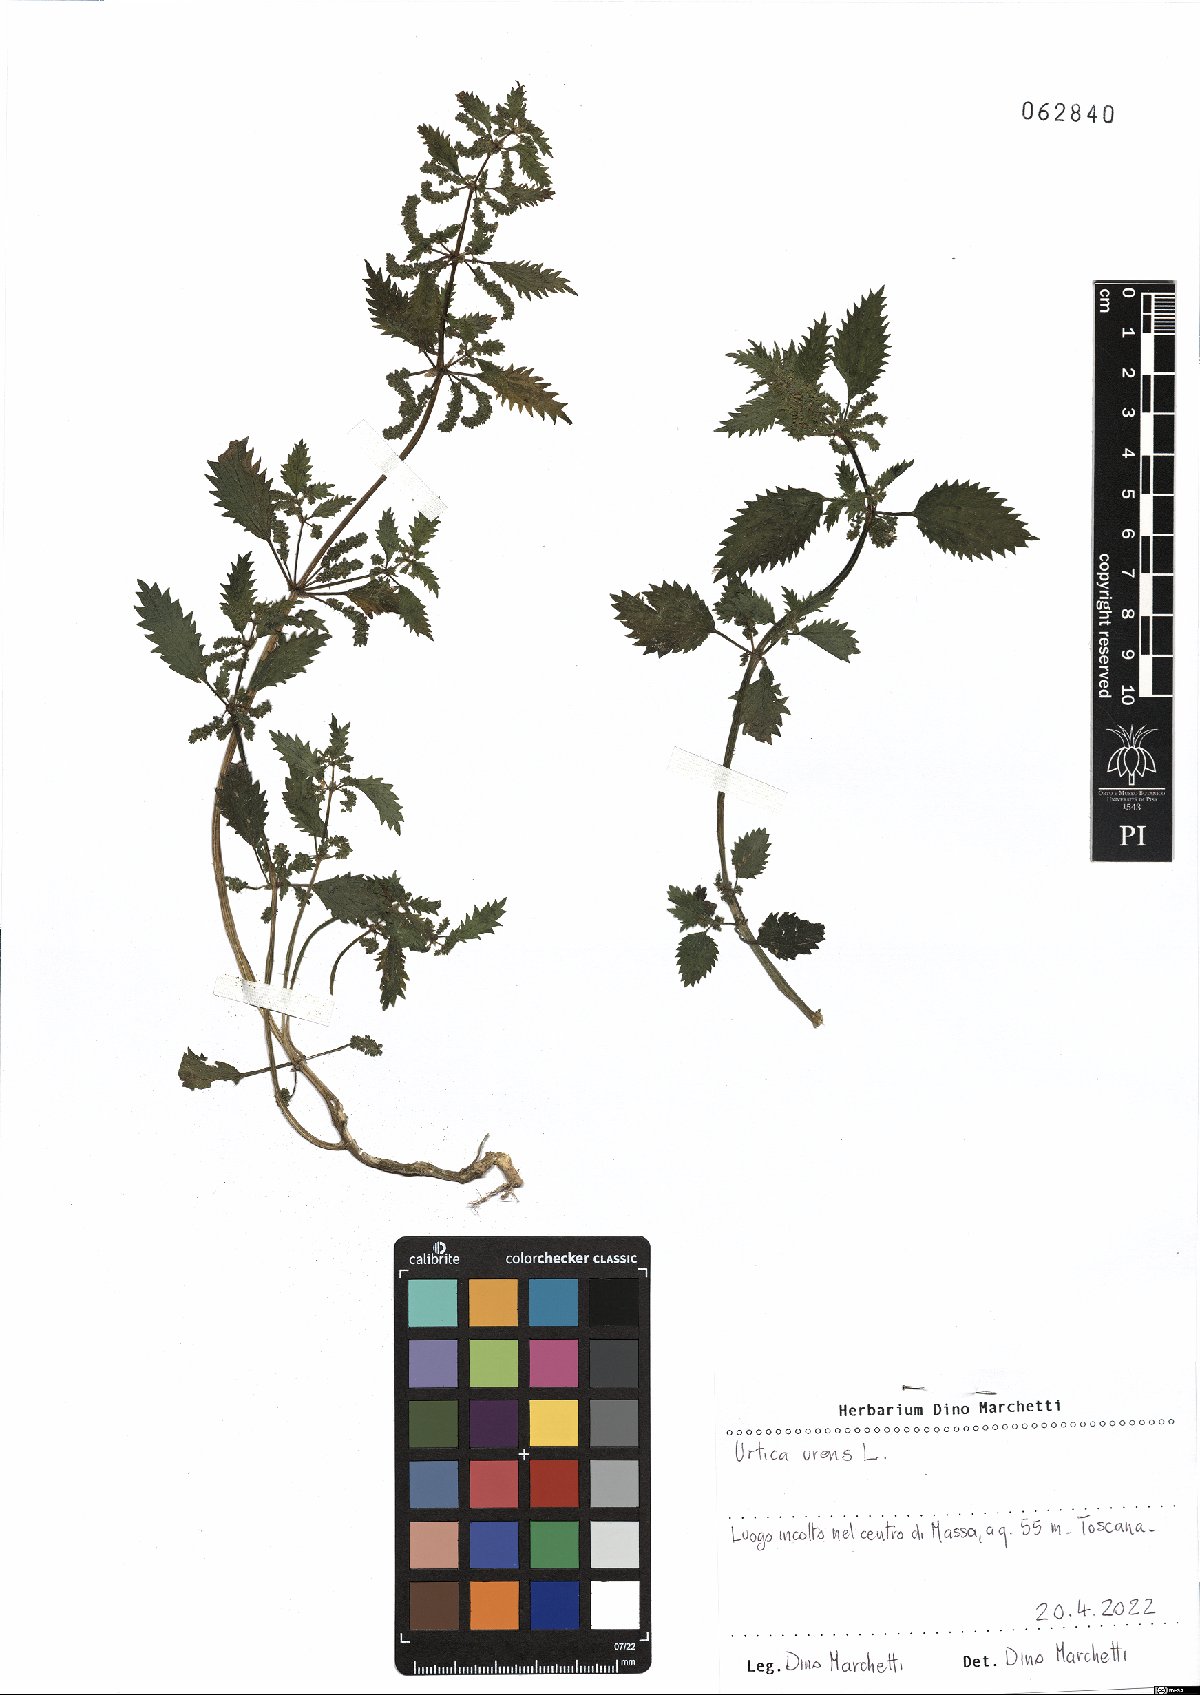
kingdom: Plantae
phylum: Tracheophyta
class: Magnoliopsida
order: Rosales
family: Urticaceae
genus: Urtica
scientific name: Urtica urens
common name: Dwarf nettle
